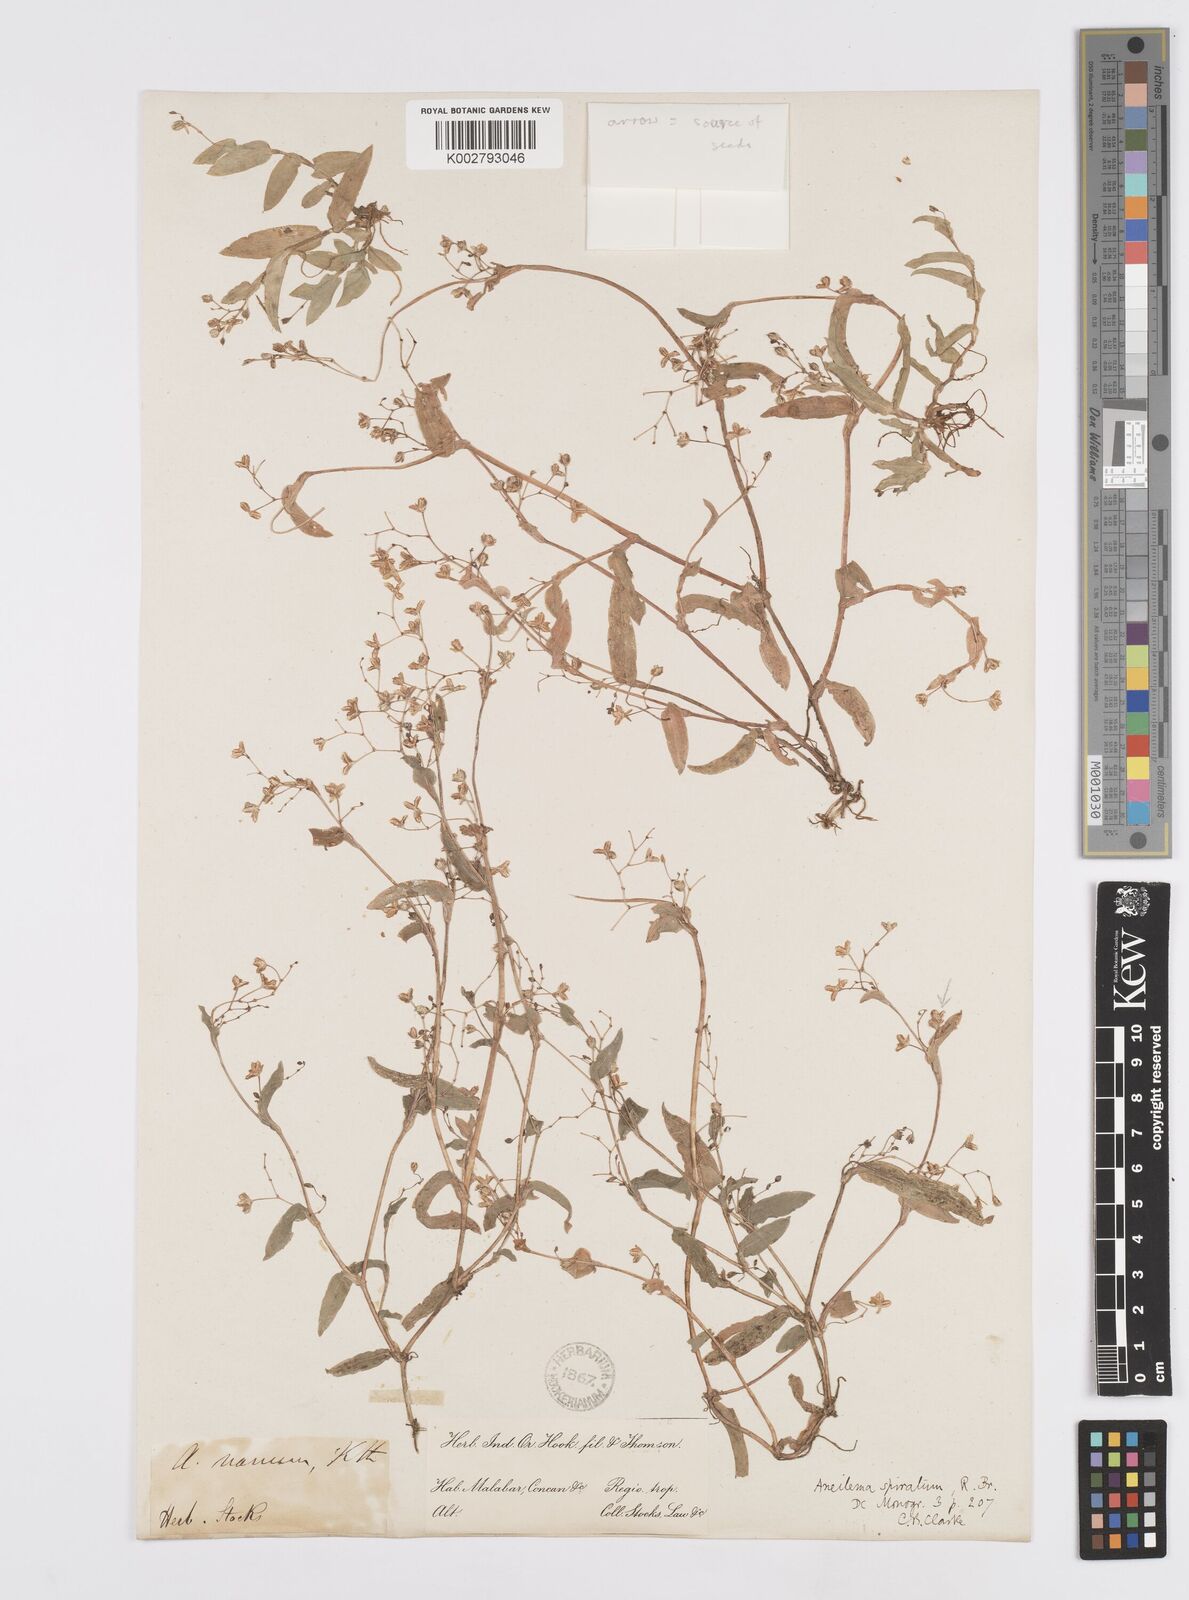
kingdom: Plantae
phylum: Tracheophyta
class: Liliopsida
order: Commelinales
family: Commelinaceae
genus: Murdannia
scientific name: Murdannia spirata
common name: Asiatic dewflower
